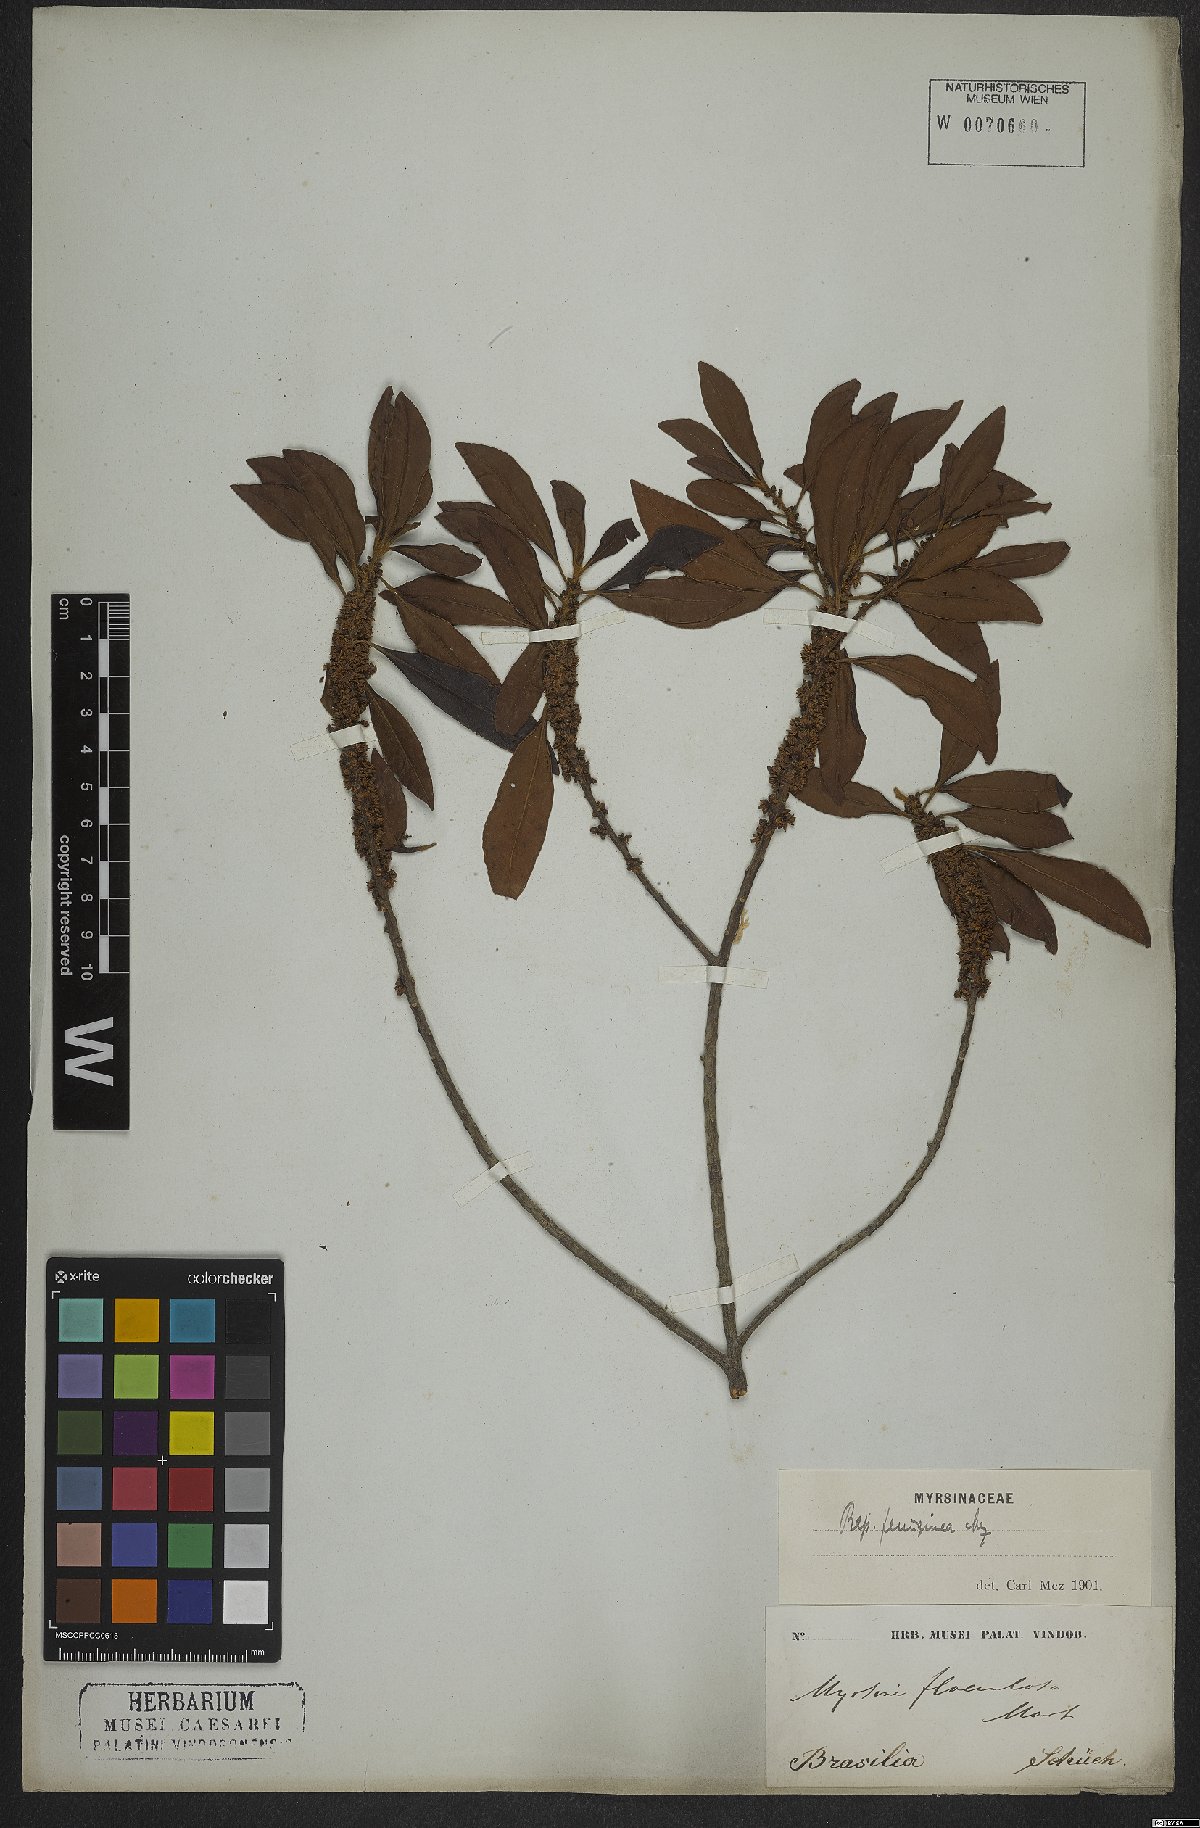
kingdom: Plantae
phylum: Tracheophyta
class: Magnoliopsida
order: Ericales
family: Primulaceae
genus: Myrsine
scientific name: Myrsine coriacea
